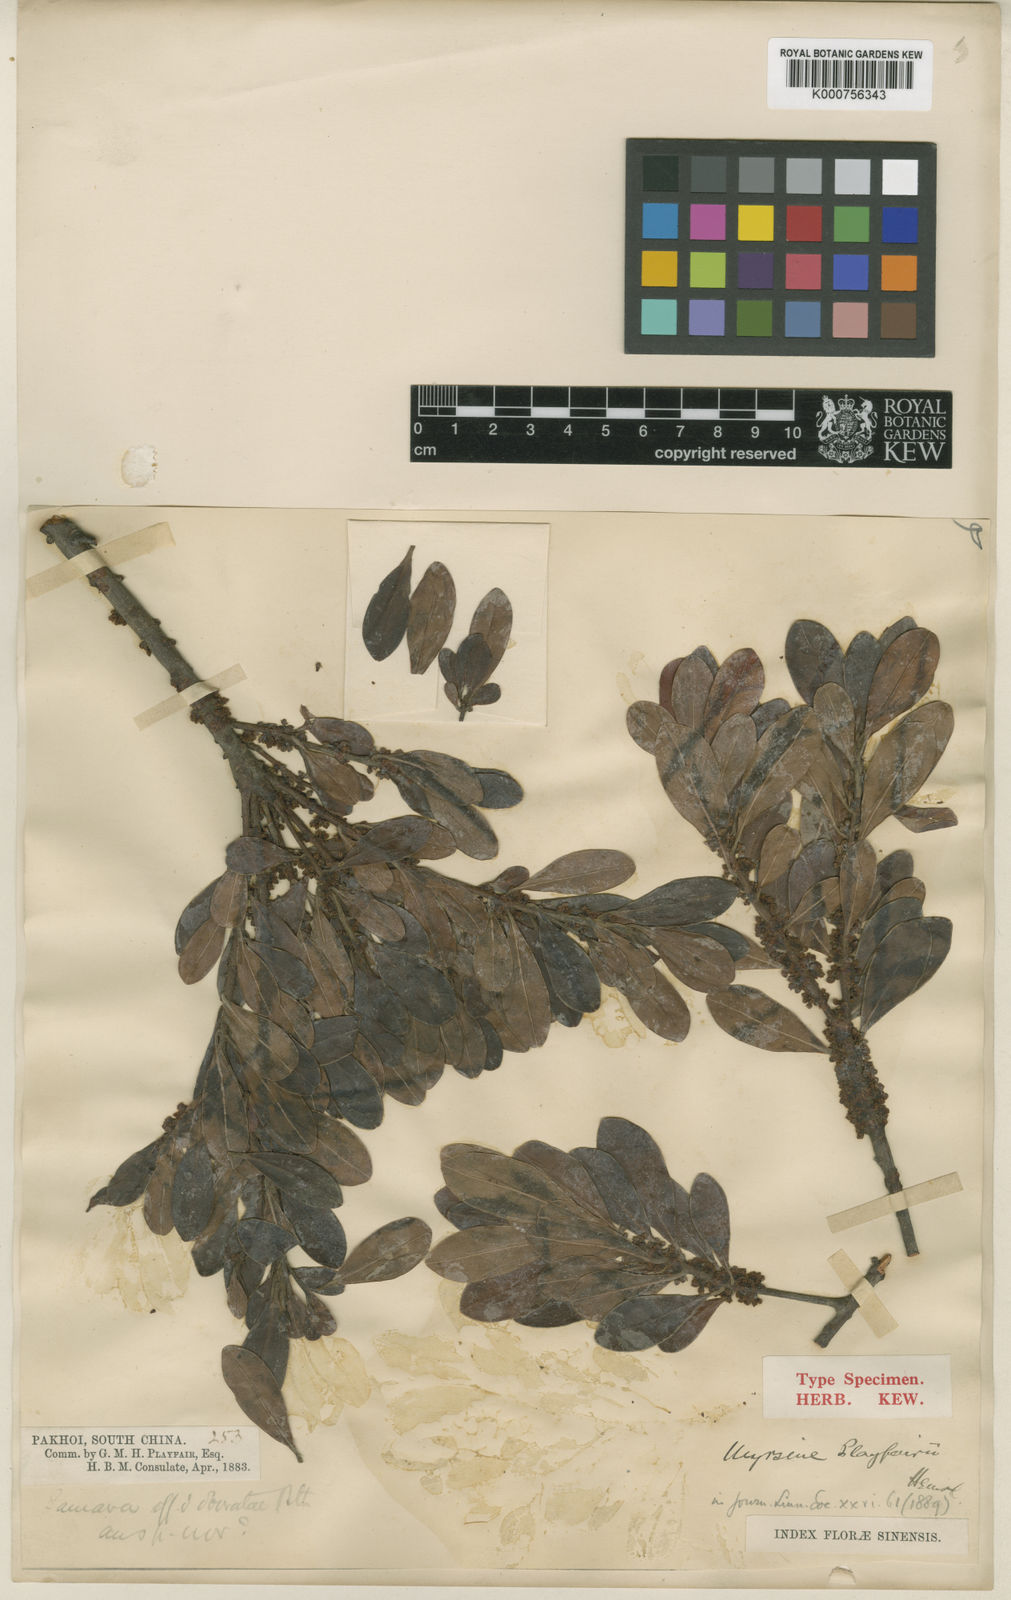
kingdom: Plantae
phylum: Tracheophyta
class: Magnoliopsida
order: Ericales
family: Primulaceae
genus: Myrsine
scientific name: Myrsine linearis
